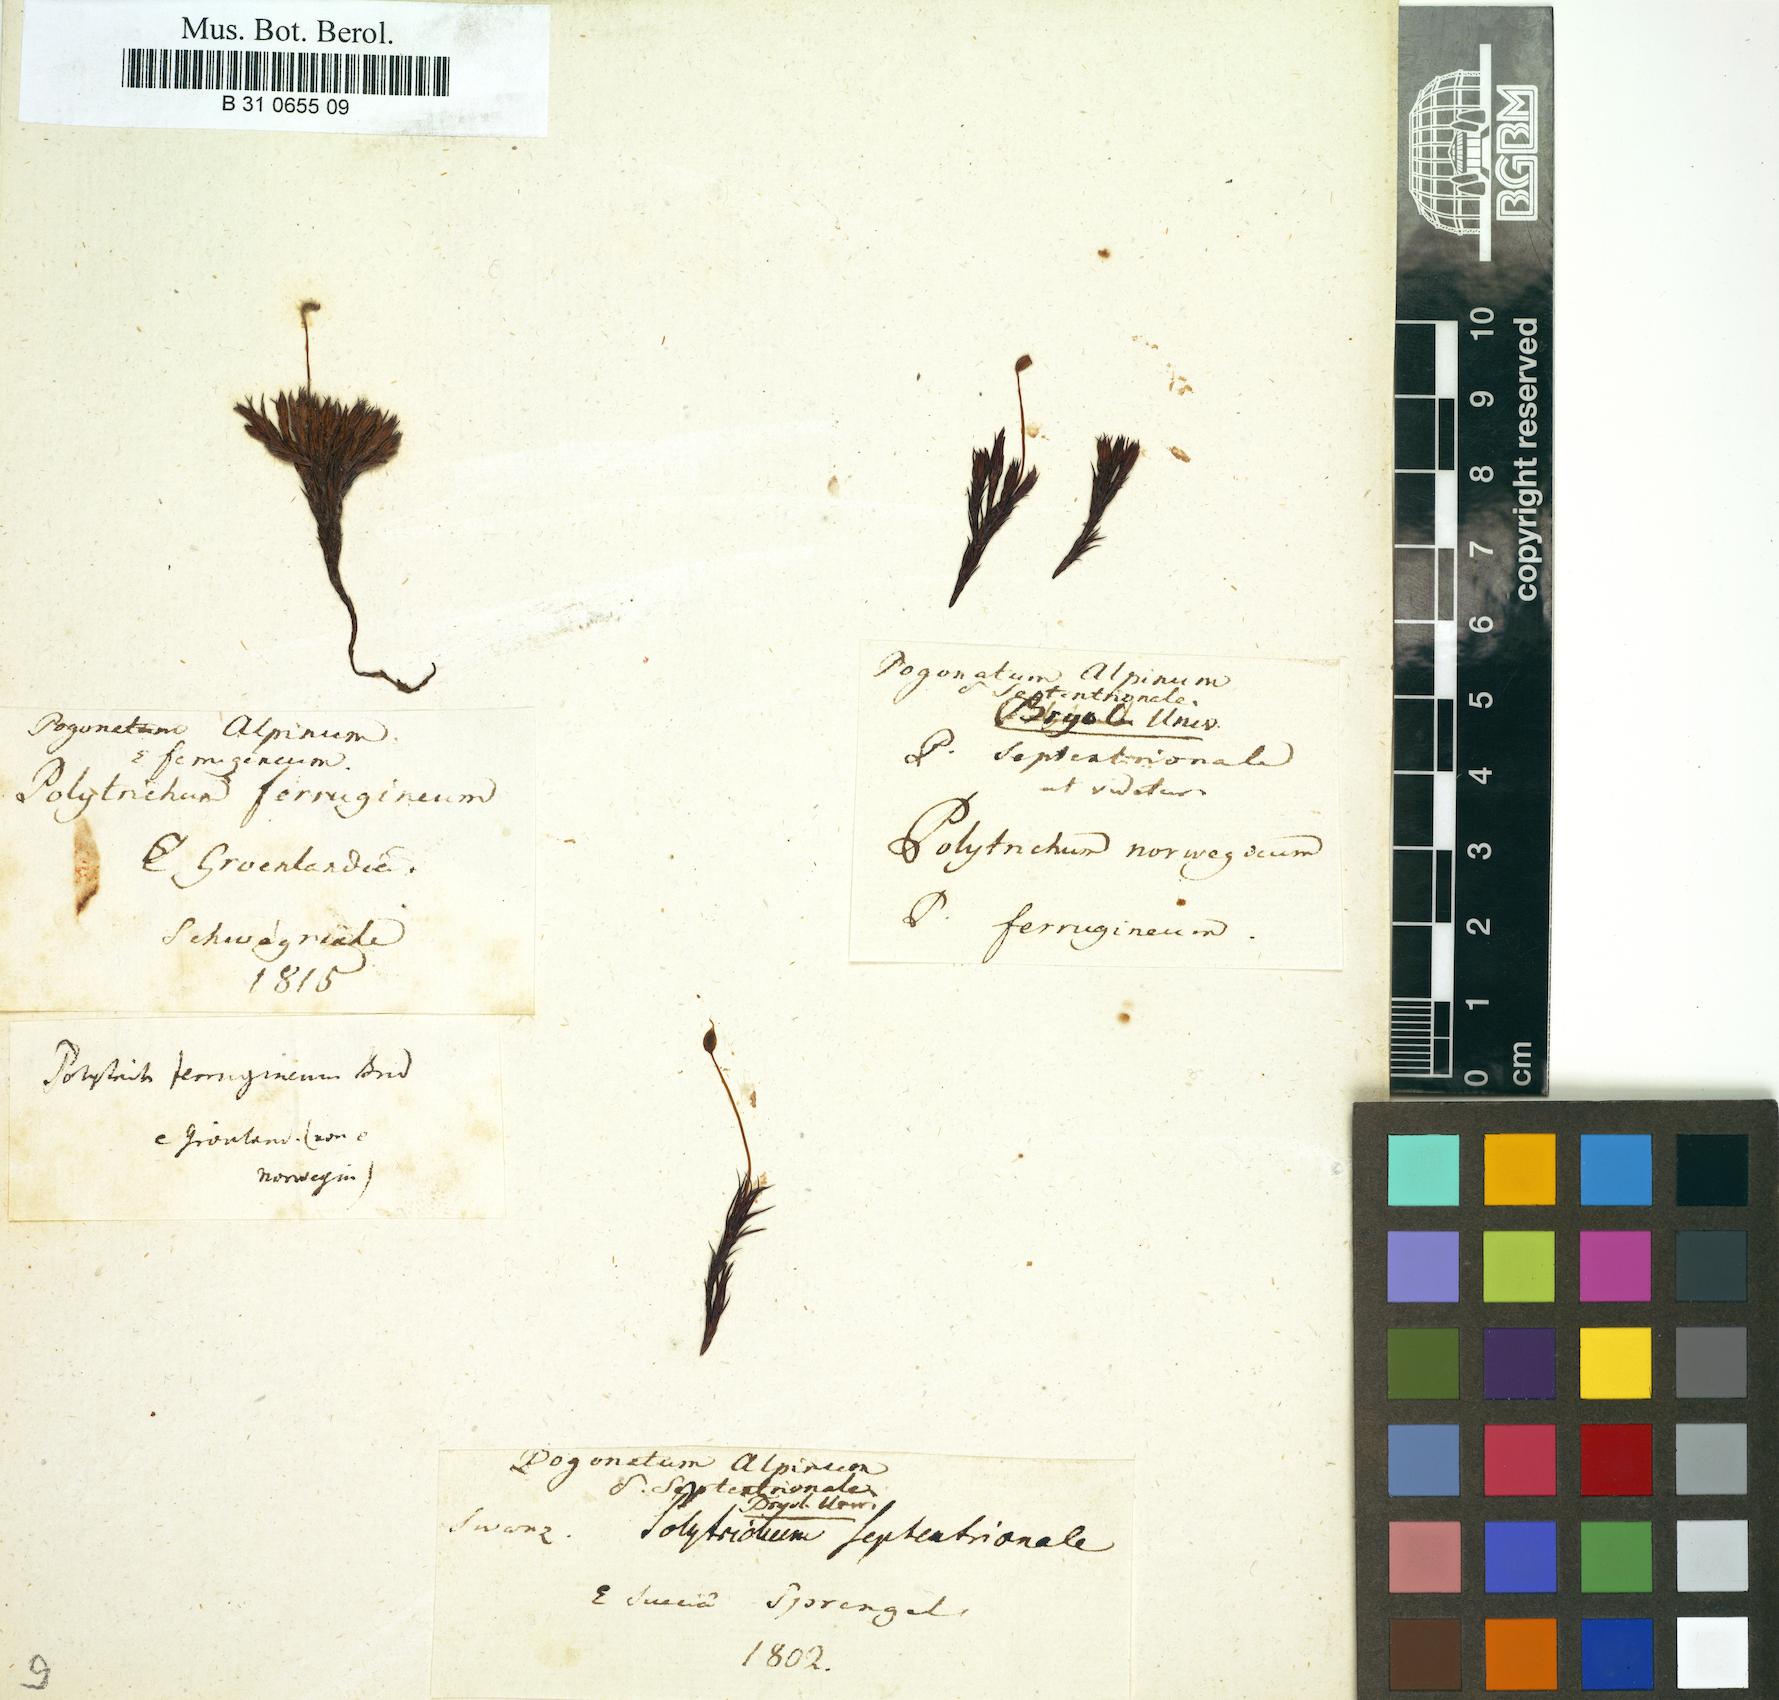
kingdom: Plantae
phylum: Bryophyta
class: Polytrichopsida
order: Polytrichales
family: Polytrichaceae
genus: Polytrichastrum
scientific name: Polytrichastrum alpinum
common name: Alpine haircap
